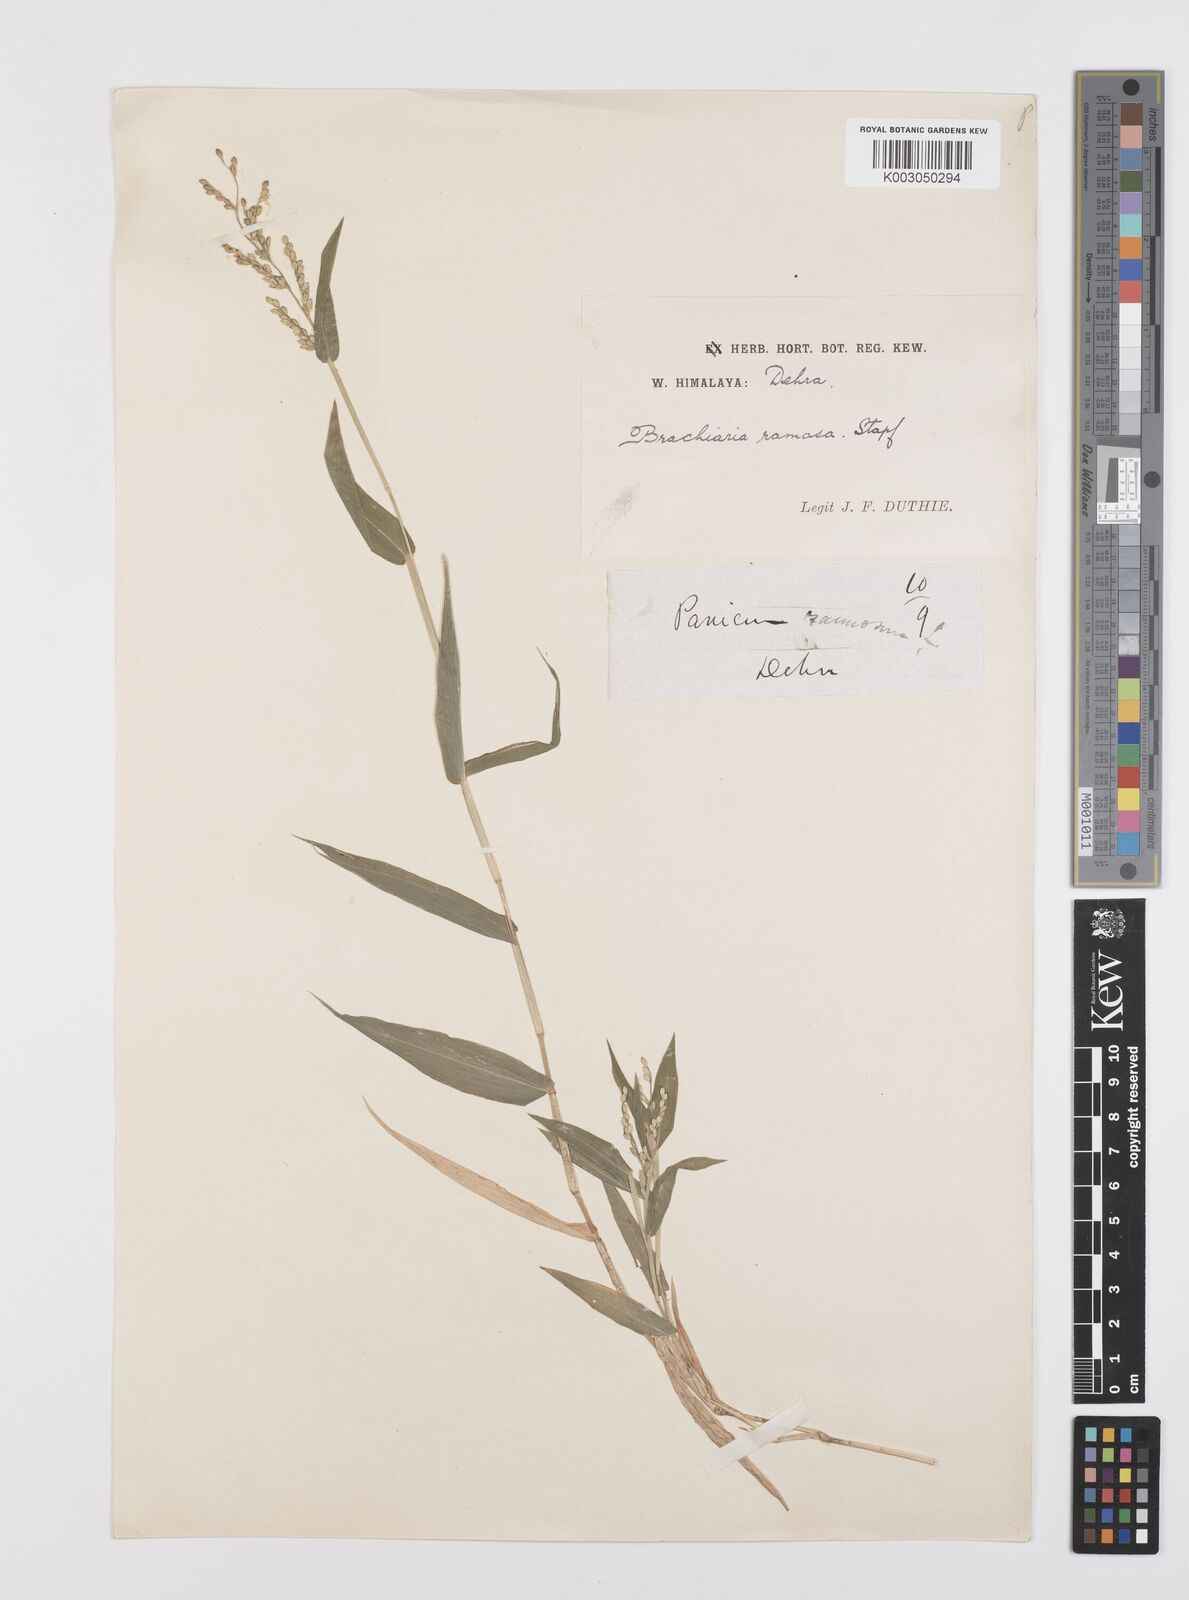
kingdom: Plantae
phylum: Tracheophyta
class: Liliopsida
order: Poales
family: Poaceae
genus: Urochloa
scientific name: Urochloa ramosa
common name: Browntop millet
